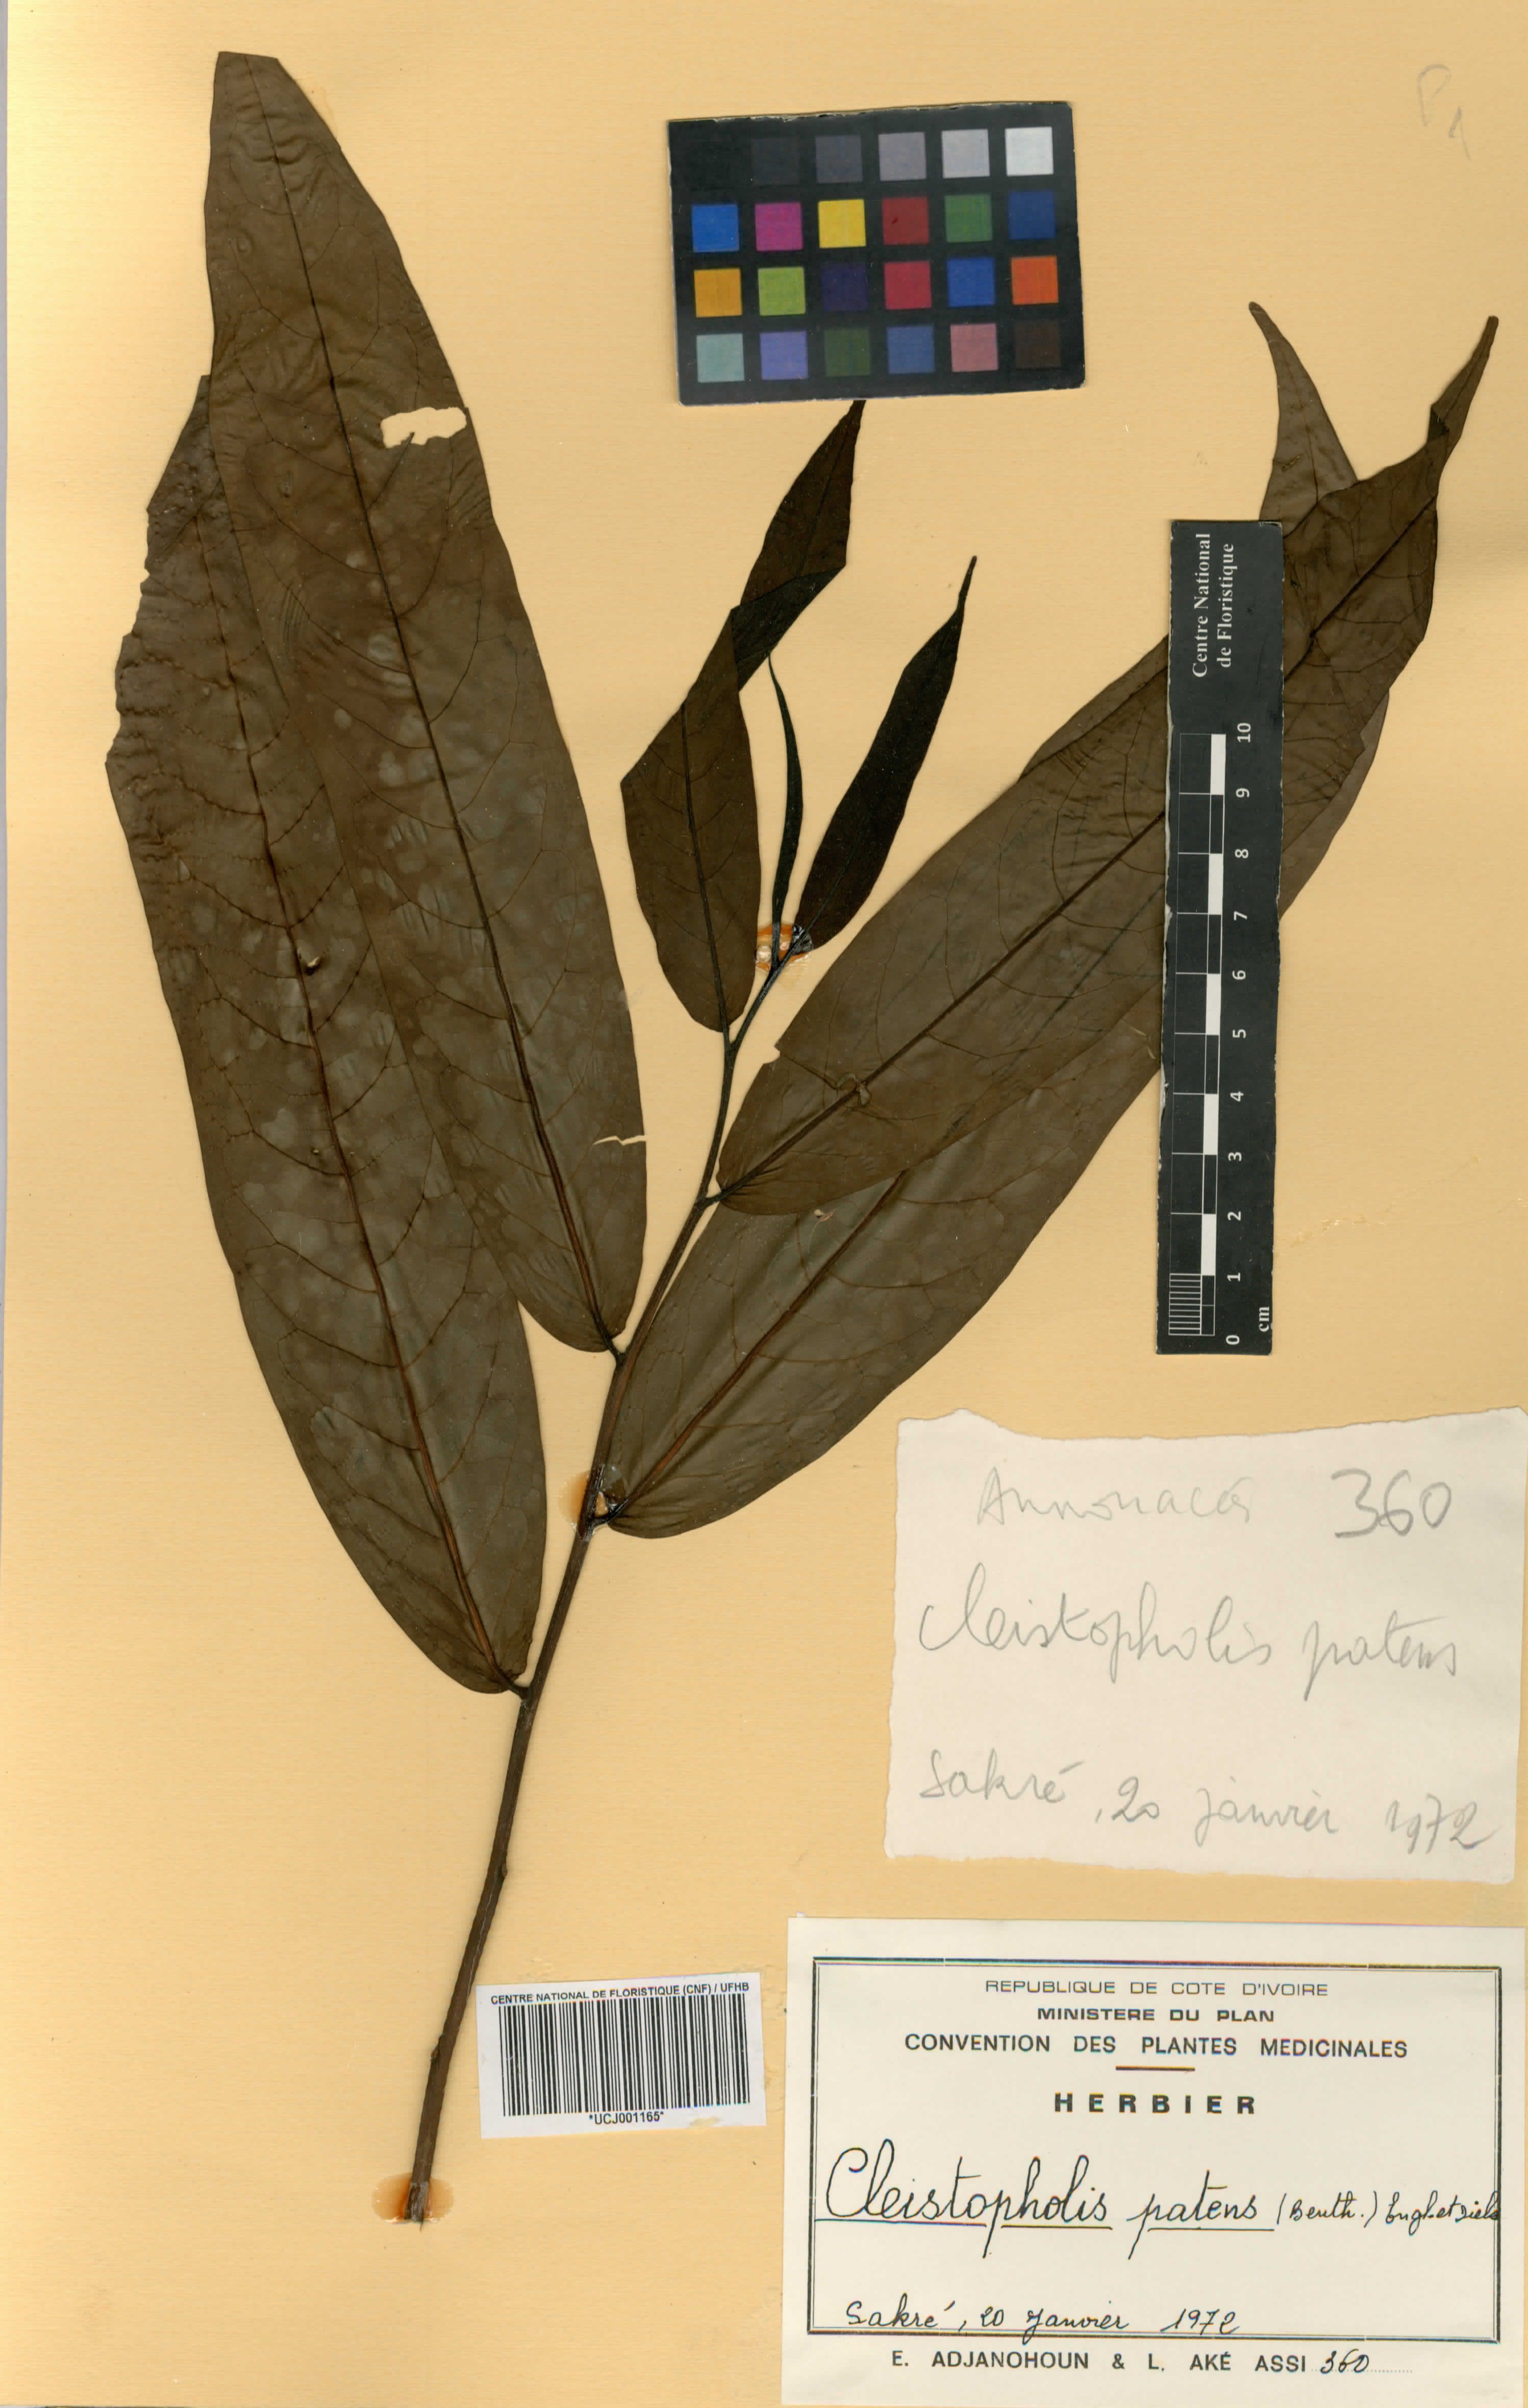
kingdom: Plantae
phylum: Tracheophyta
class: Magnoliopsida
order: Magnoliales
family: Annonaceae
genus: Cleistopholis
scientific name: Cleistopholis patens
